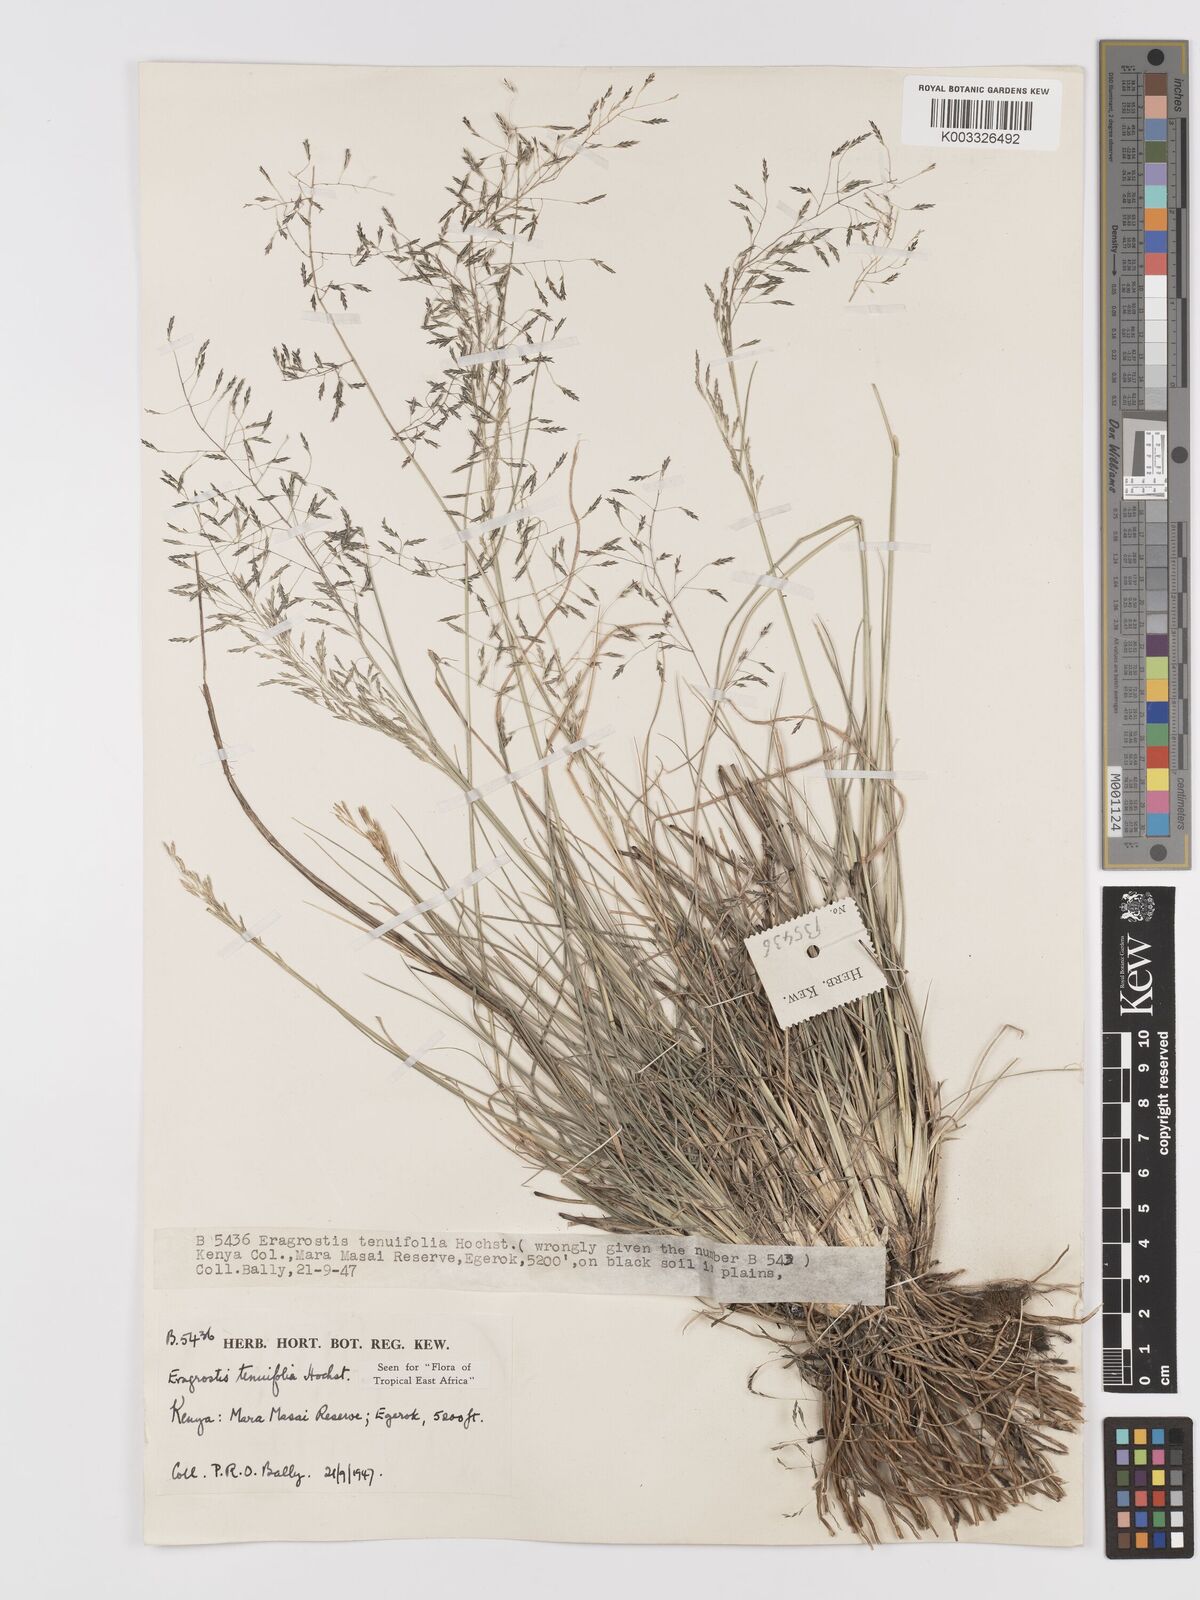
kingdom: Plantae
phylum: Tracheophyta
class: Liliopsida
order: Poales
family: Poaceae
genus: Eragrostis
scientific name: Eragrostis tenuifolia
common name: Elastic grass
